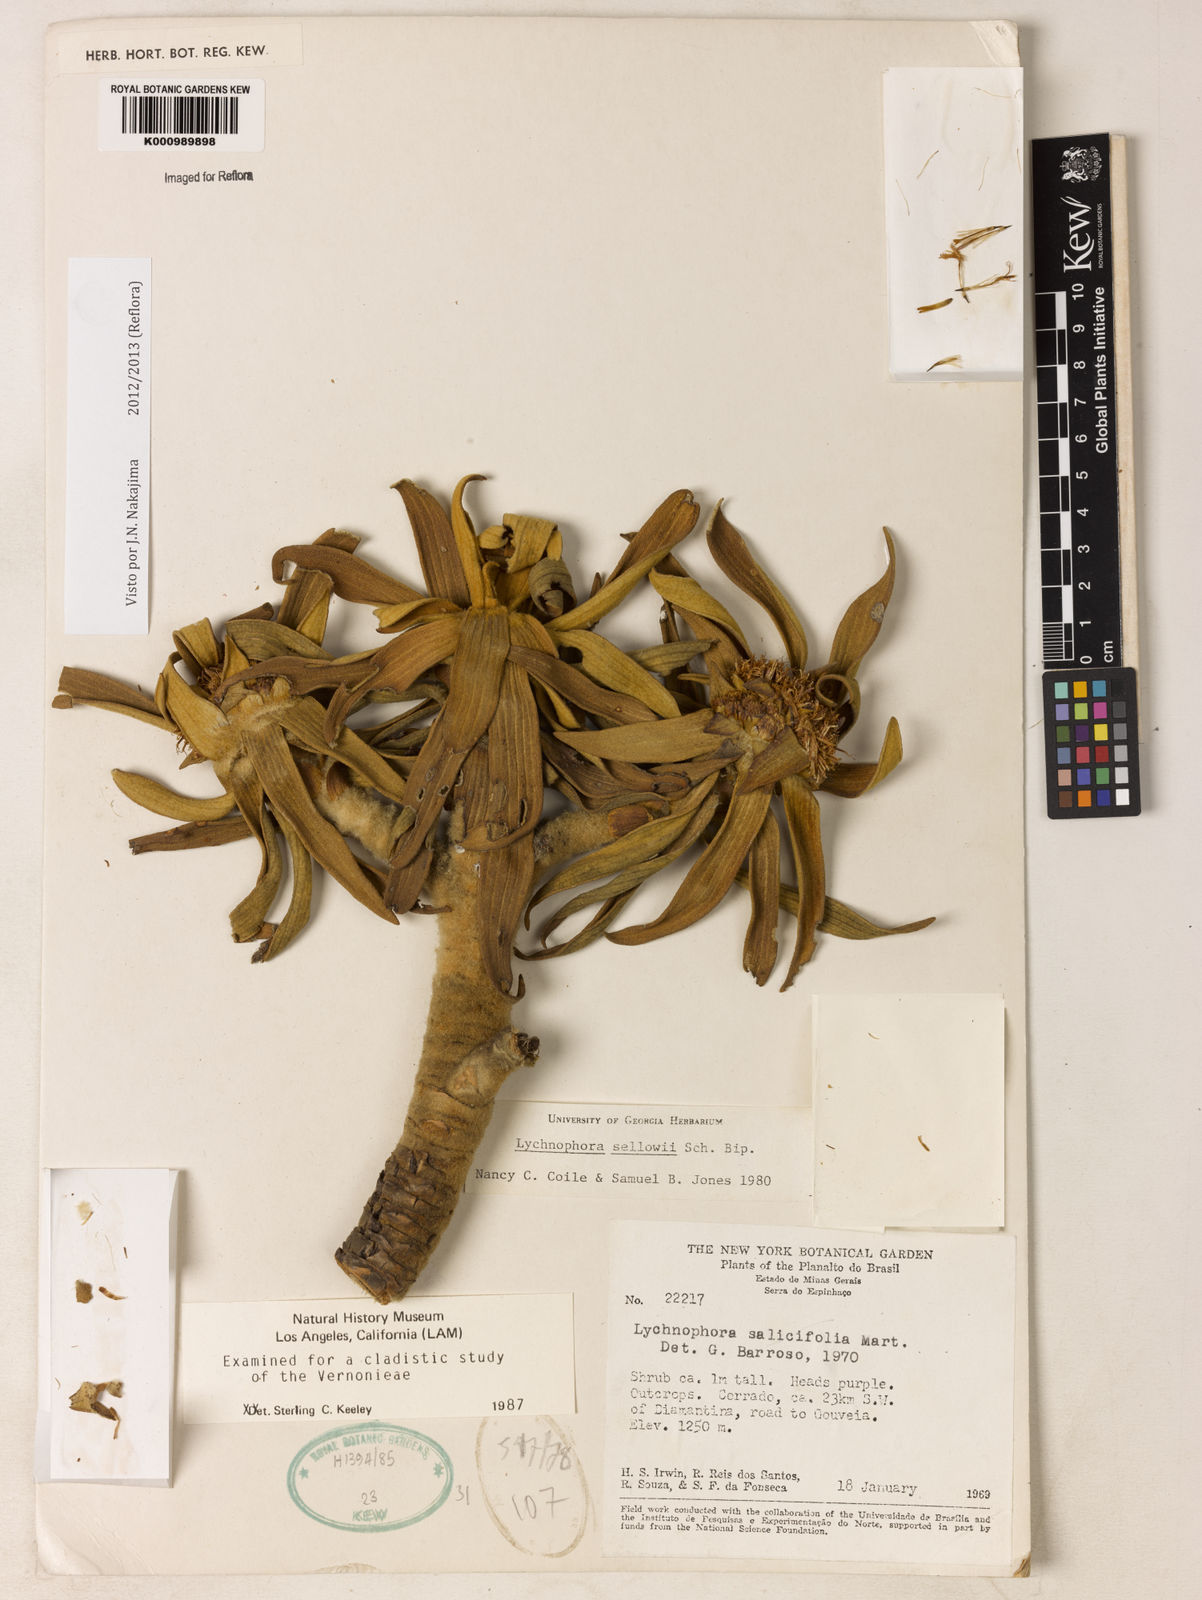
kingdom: Plantae
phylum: Tracheophyta
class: Magnoliopsida
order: Asterales
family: Asteraceae
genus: Lychnophora
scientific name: Lychnophora
